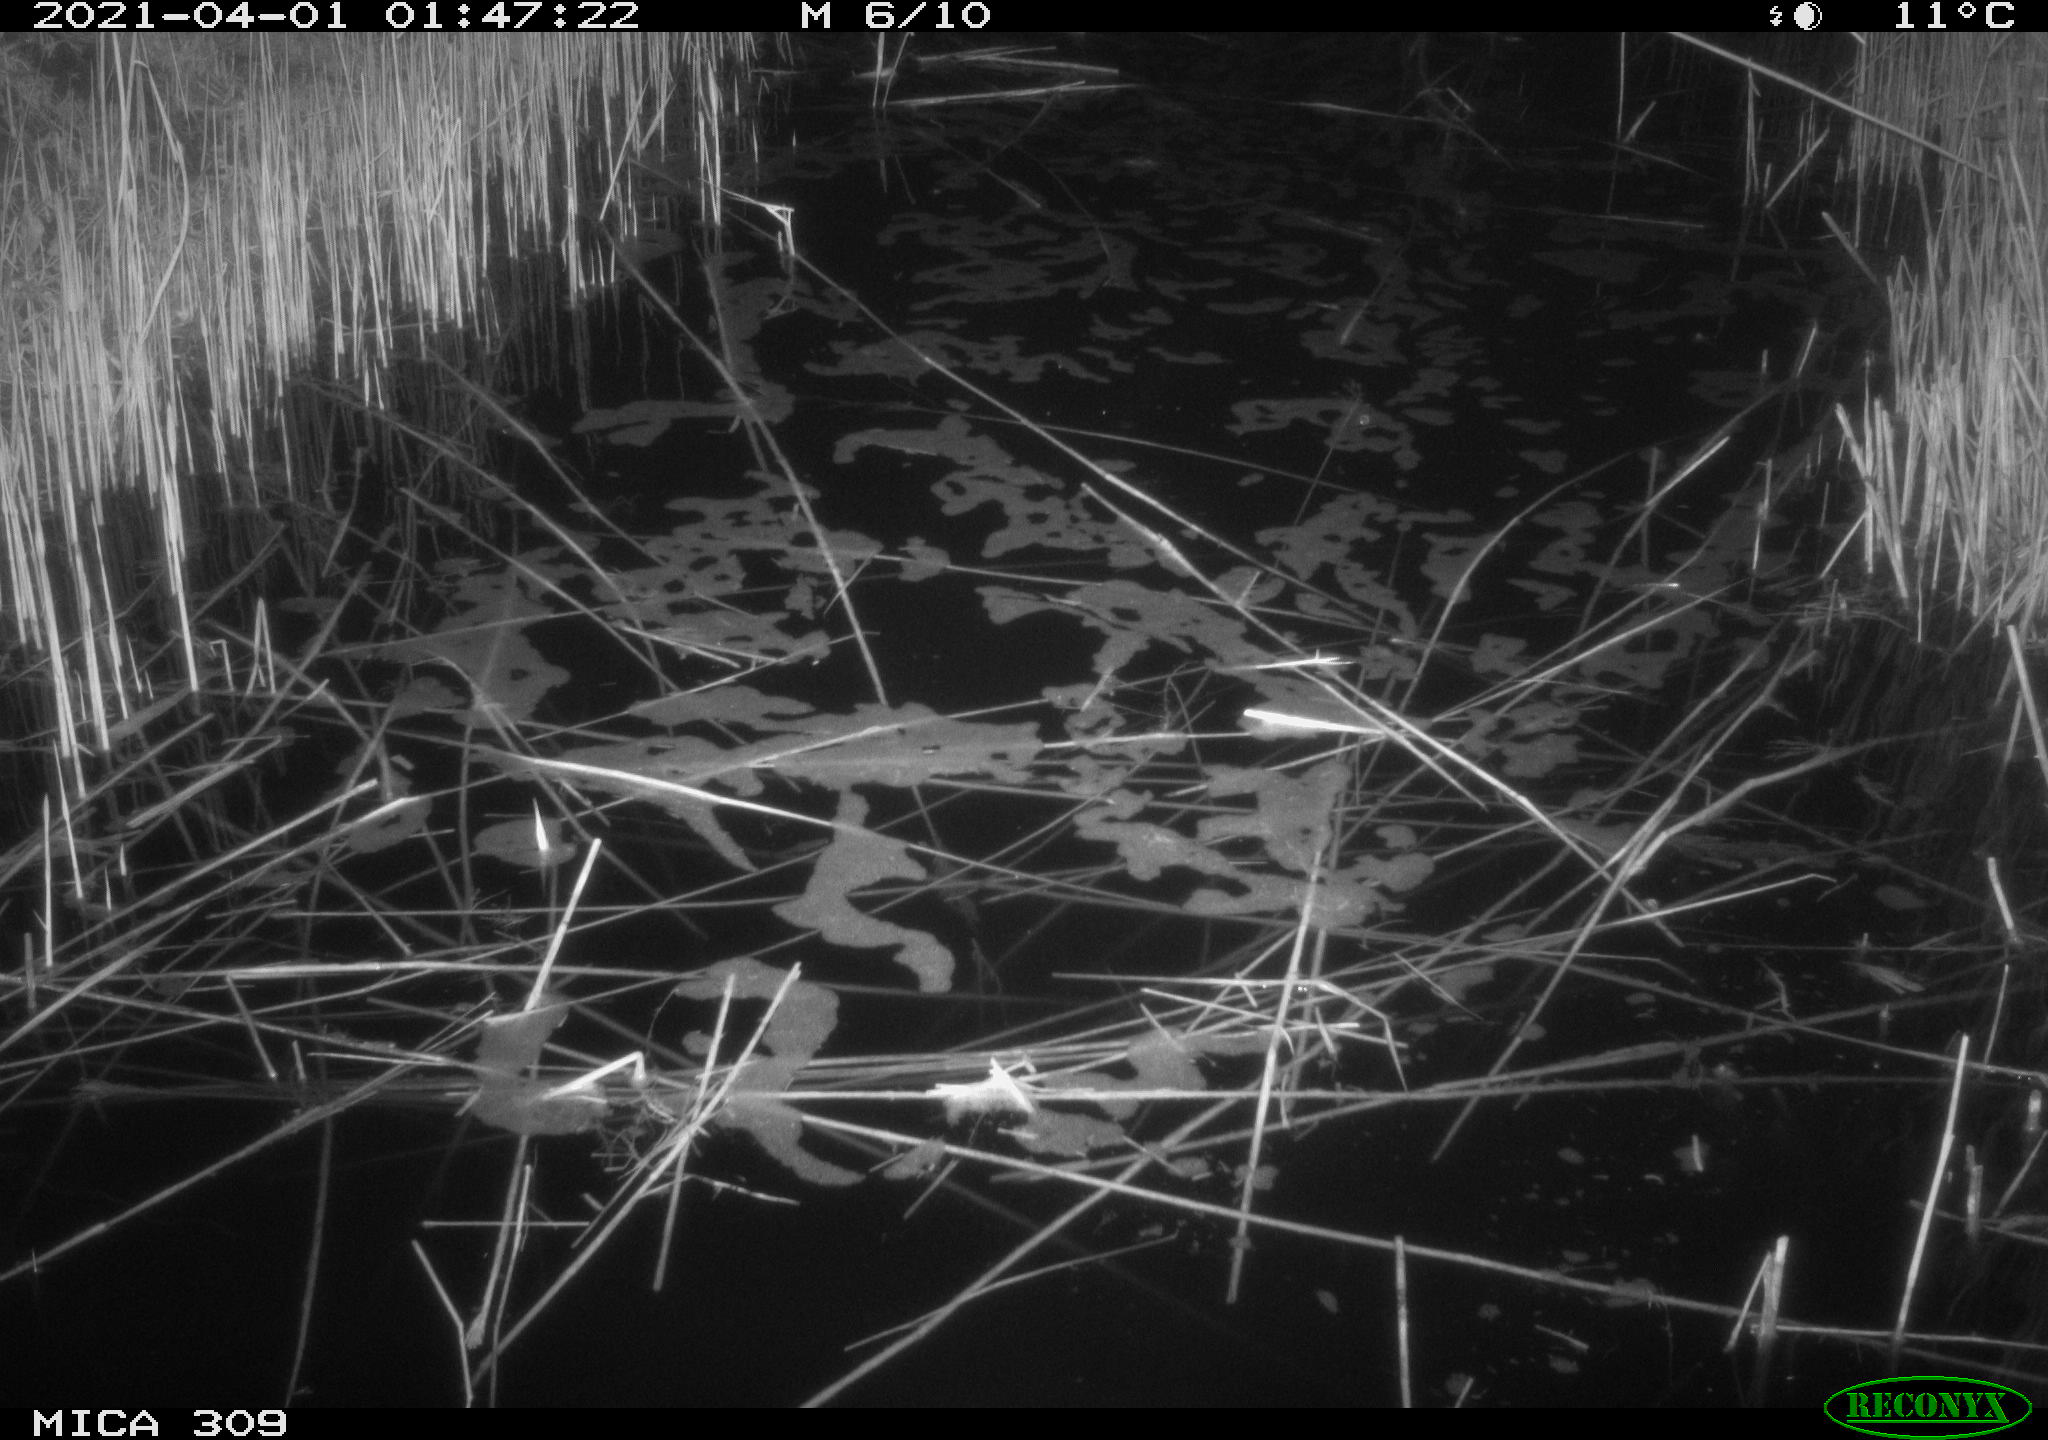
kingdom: Animalia
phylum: Chordata
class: Aves
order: Anseriformes
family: Anatidae
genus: Anas
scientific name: Anas platyrhynchos
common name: Mallard
